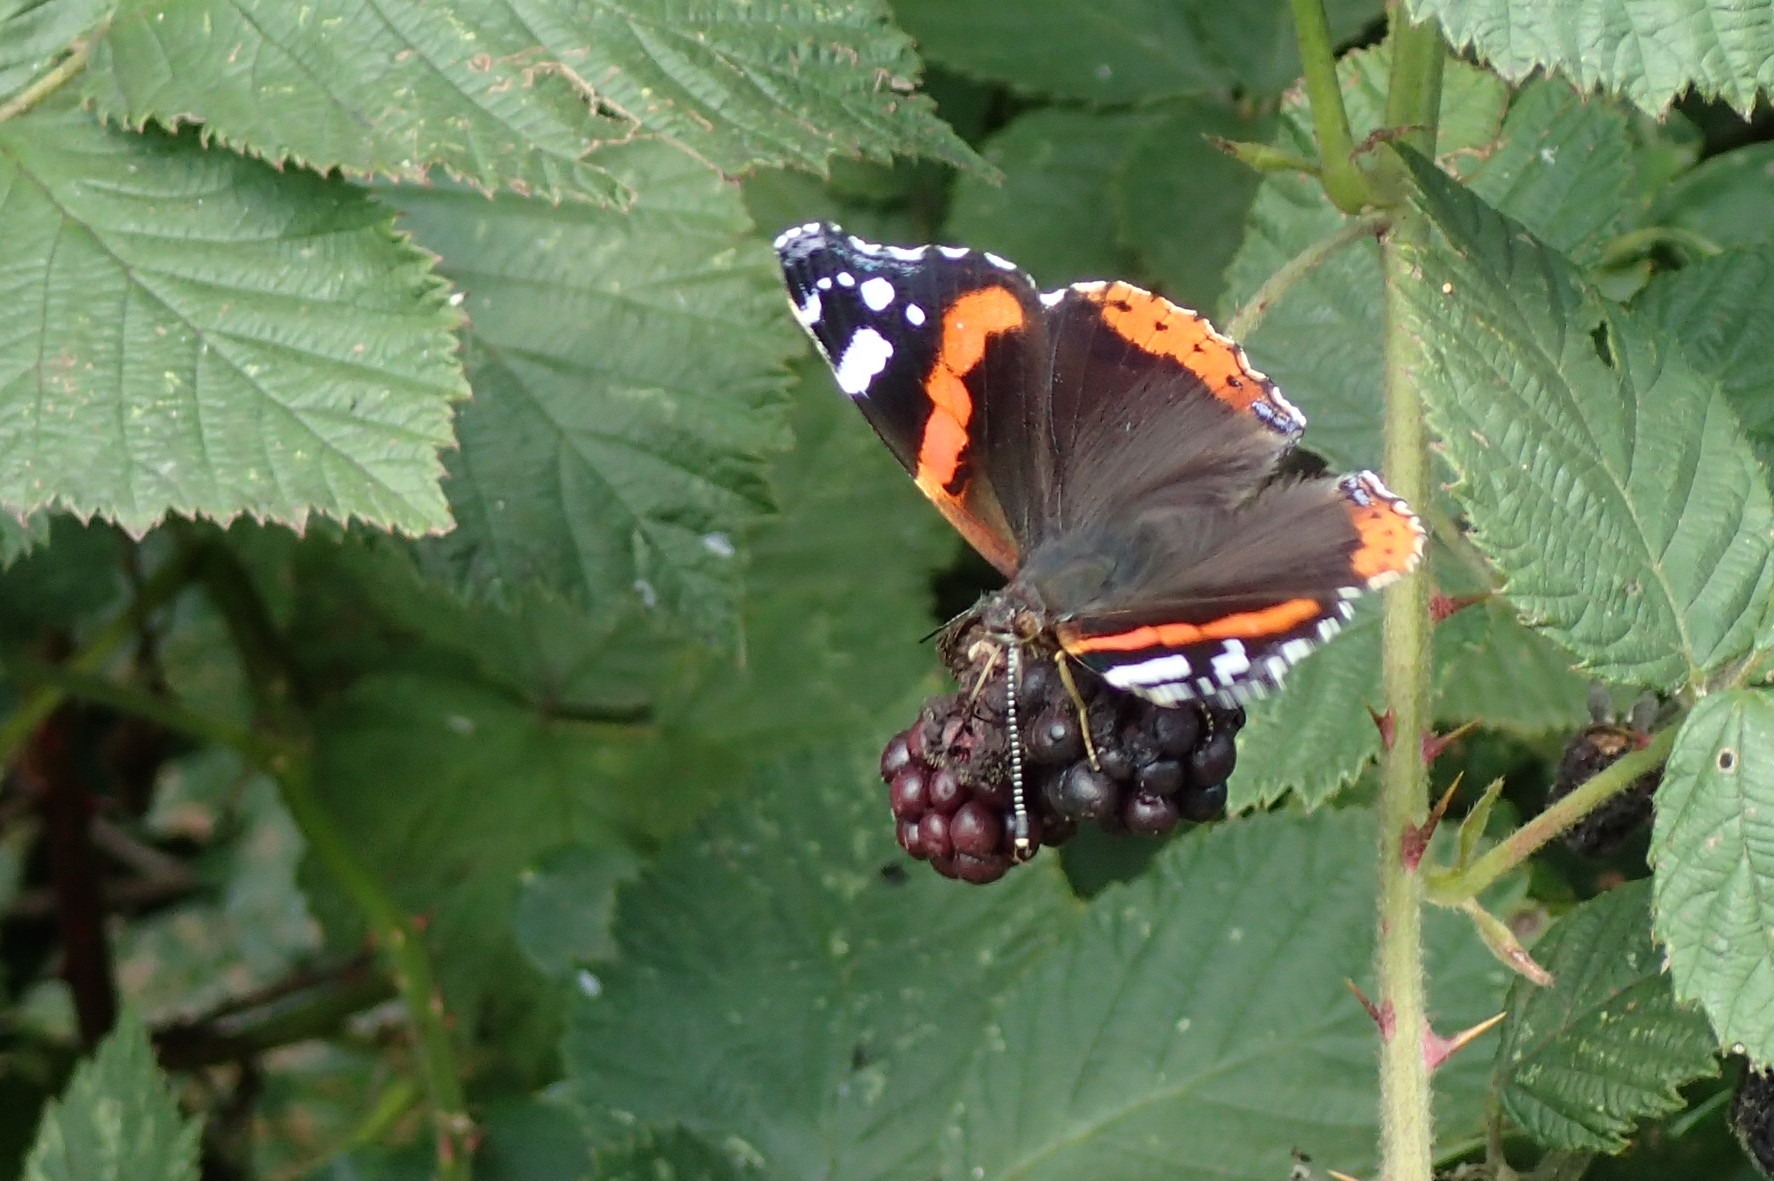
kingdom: Animalia
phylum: Arthropoda
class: Insecta
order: Lepidoptera
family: Nymphalidae
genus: Vanessa
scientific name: Vanessa atalanta
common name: Admiral
